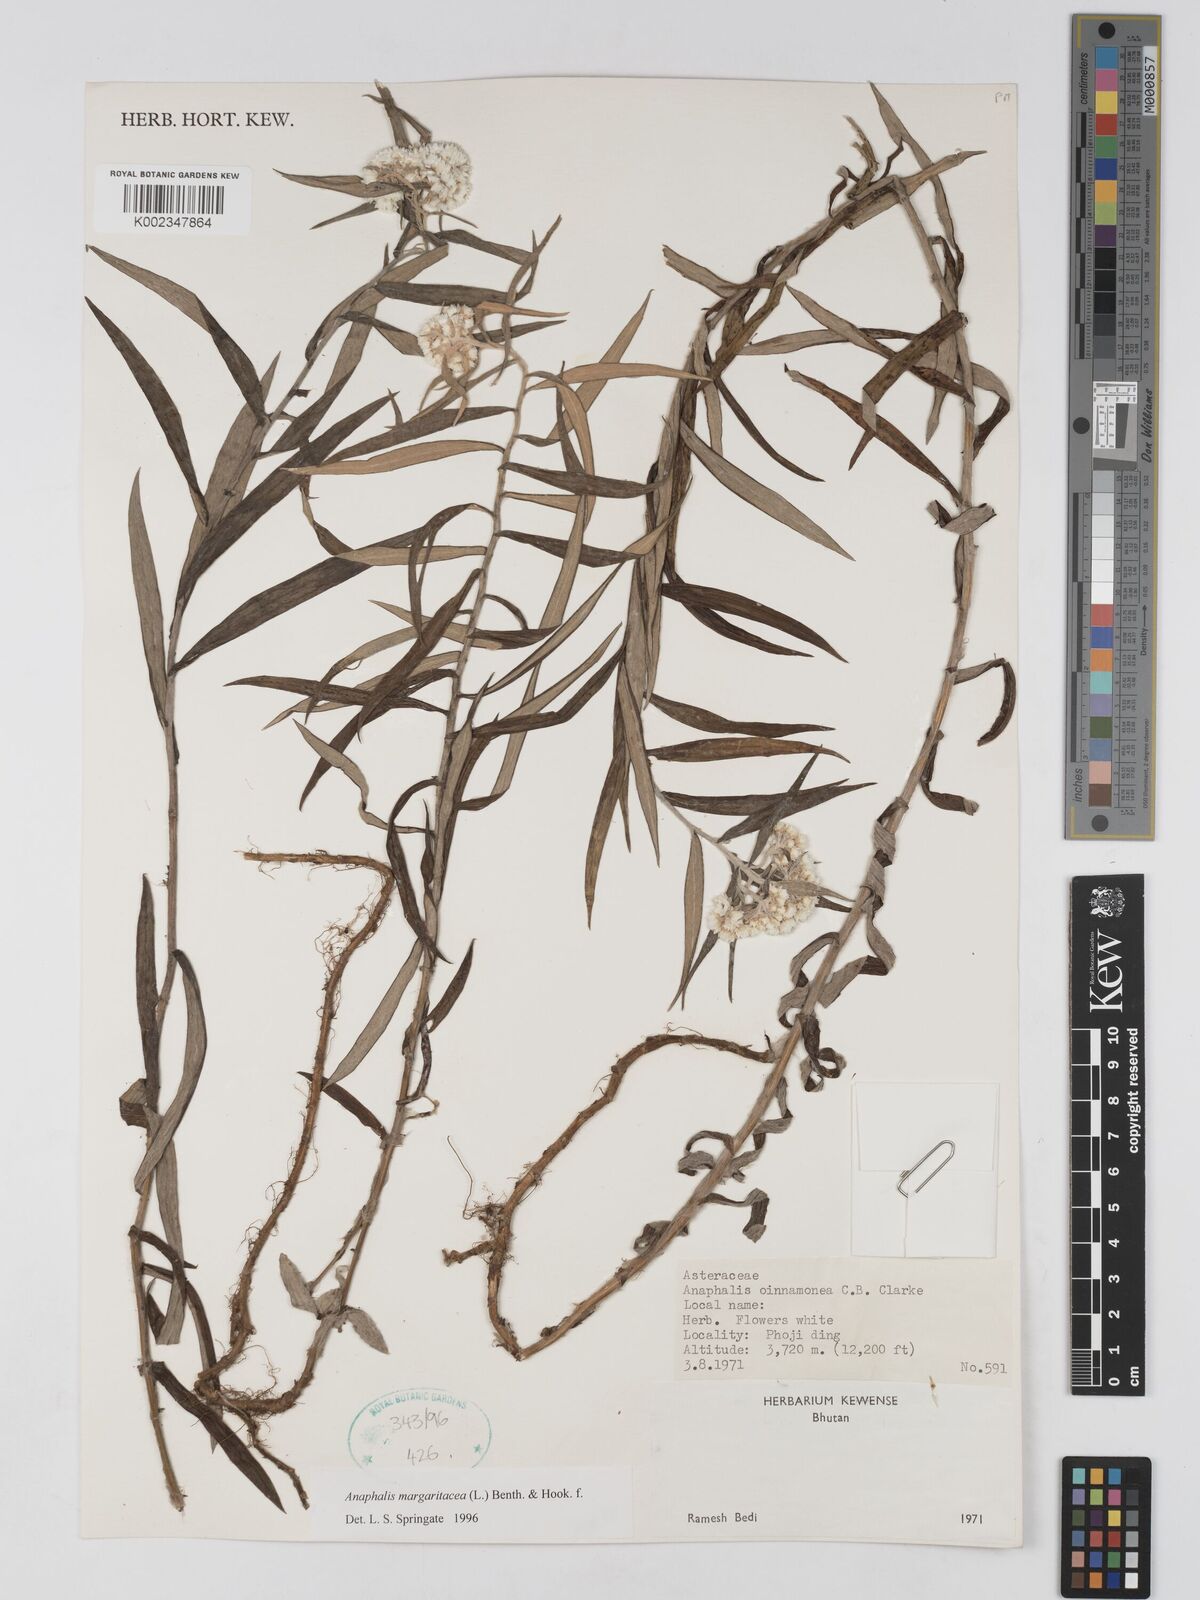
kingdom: Plantae
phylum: Tracheophyta
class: Magnoliopsida
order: Asterales
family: Asteraceae
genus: Anaphalis
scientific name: Anaphalis margaritacea
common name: Pearly everlasting
